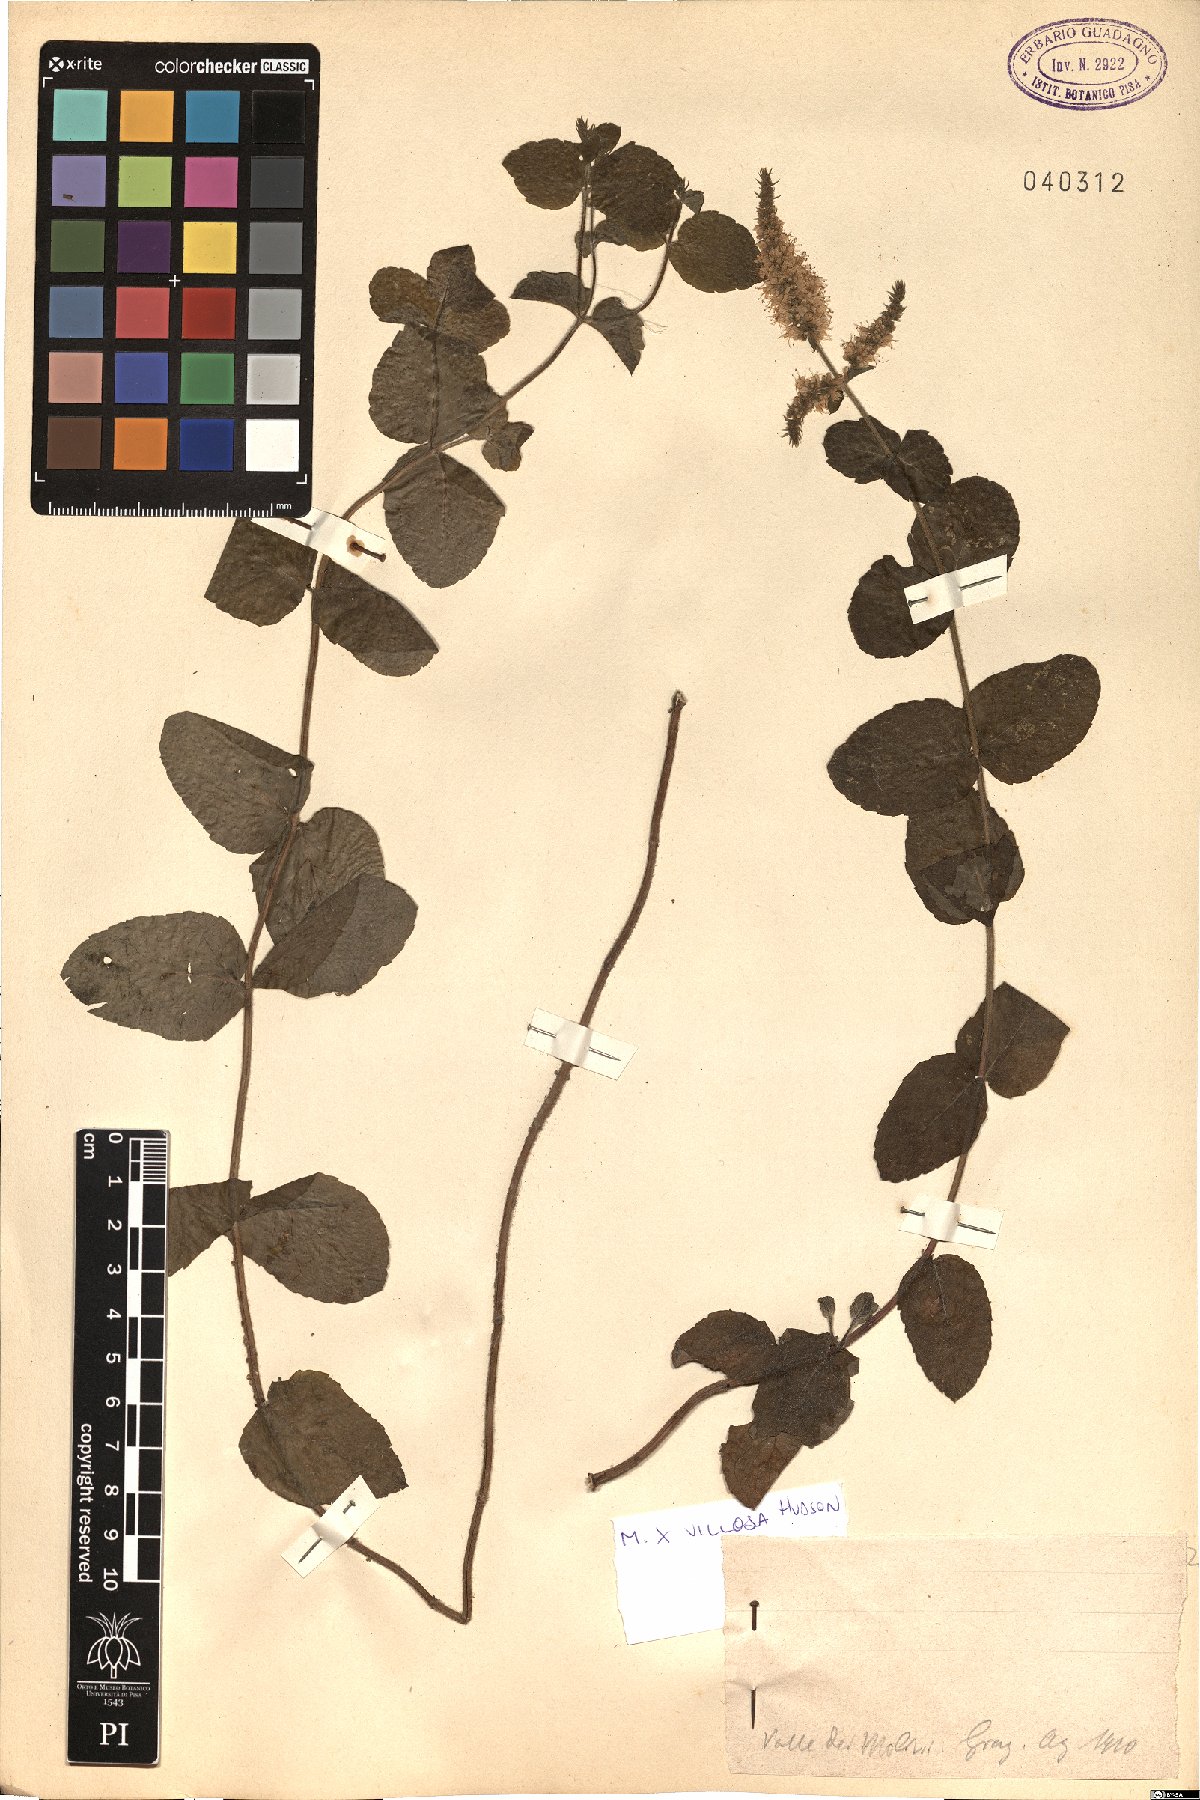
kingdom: Plantae
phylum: Tracheophyta
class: Magnoliopsida
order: Lamiales
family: Lamiaceae
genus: Mentha
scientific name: Mentha villosa
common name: Apple mint
